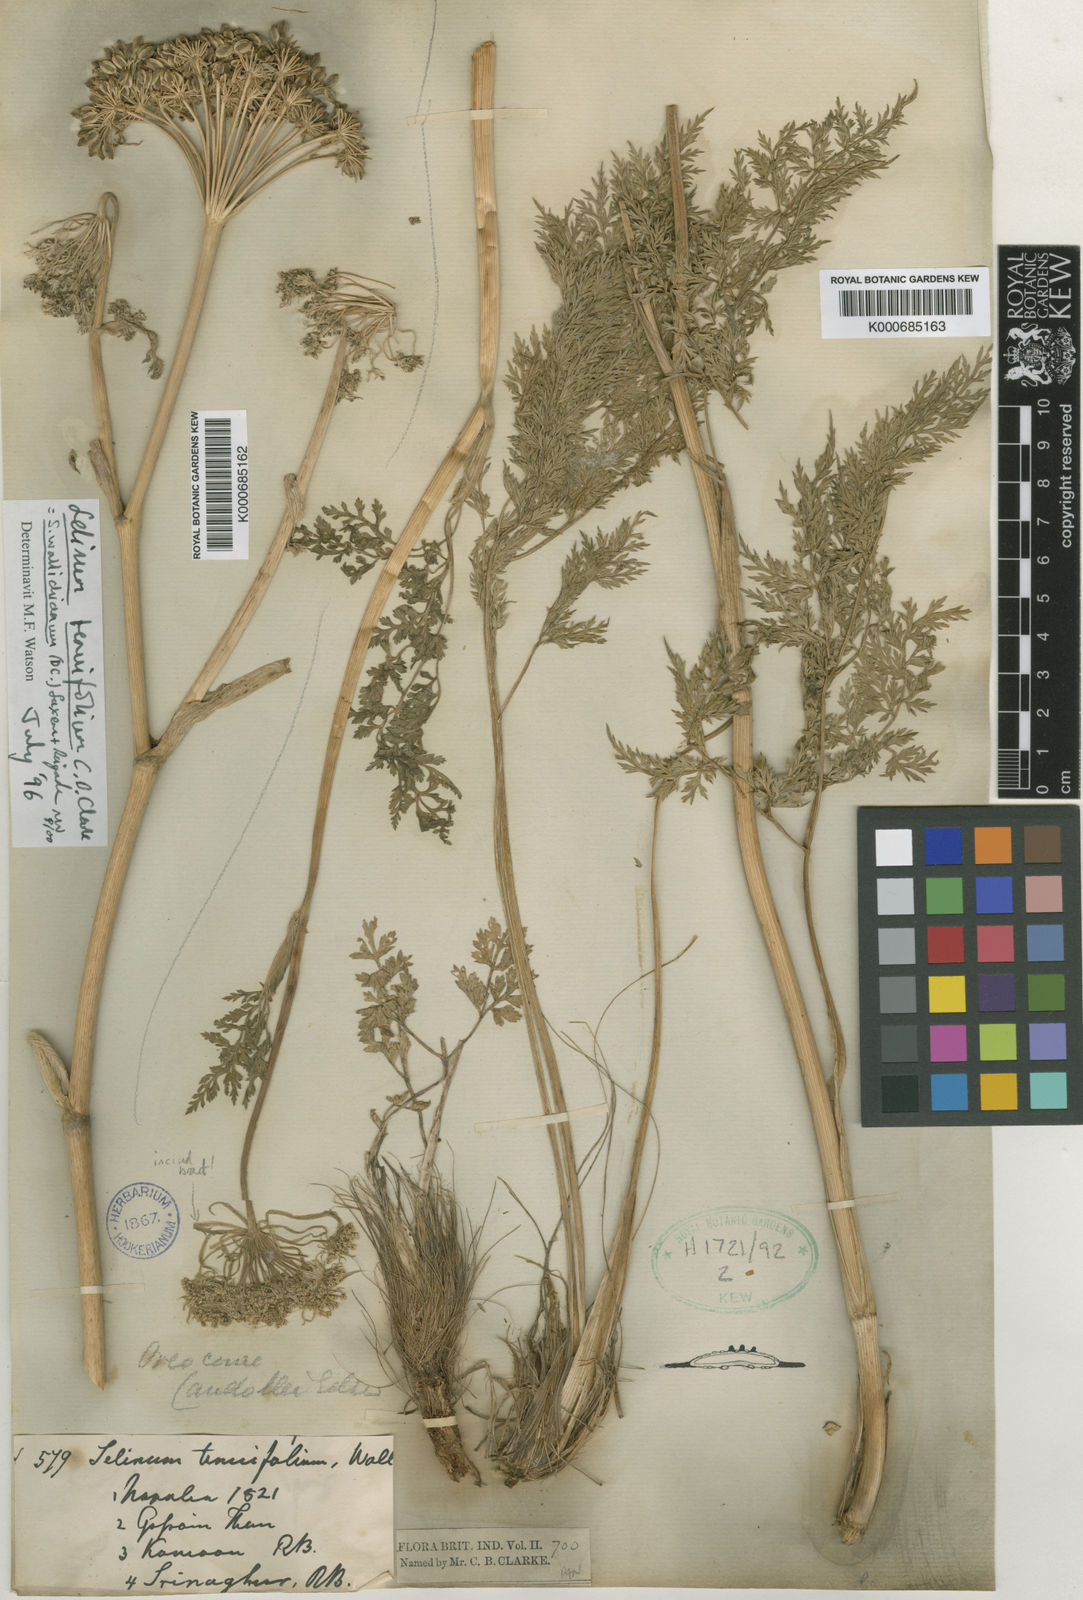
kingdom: Plantae
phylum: Tracheophyta
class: Magnoliopsida
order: Apiales
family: Apiaceae
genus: Ligusticopsis
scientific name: Ligusticopsis wallichiana
